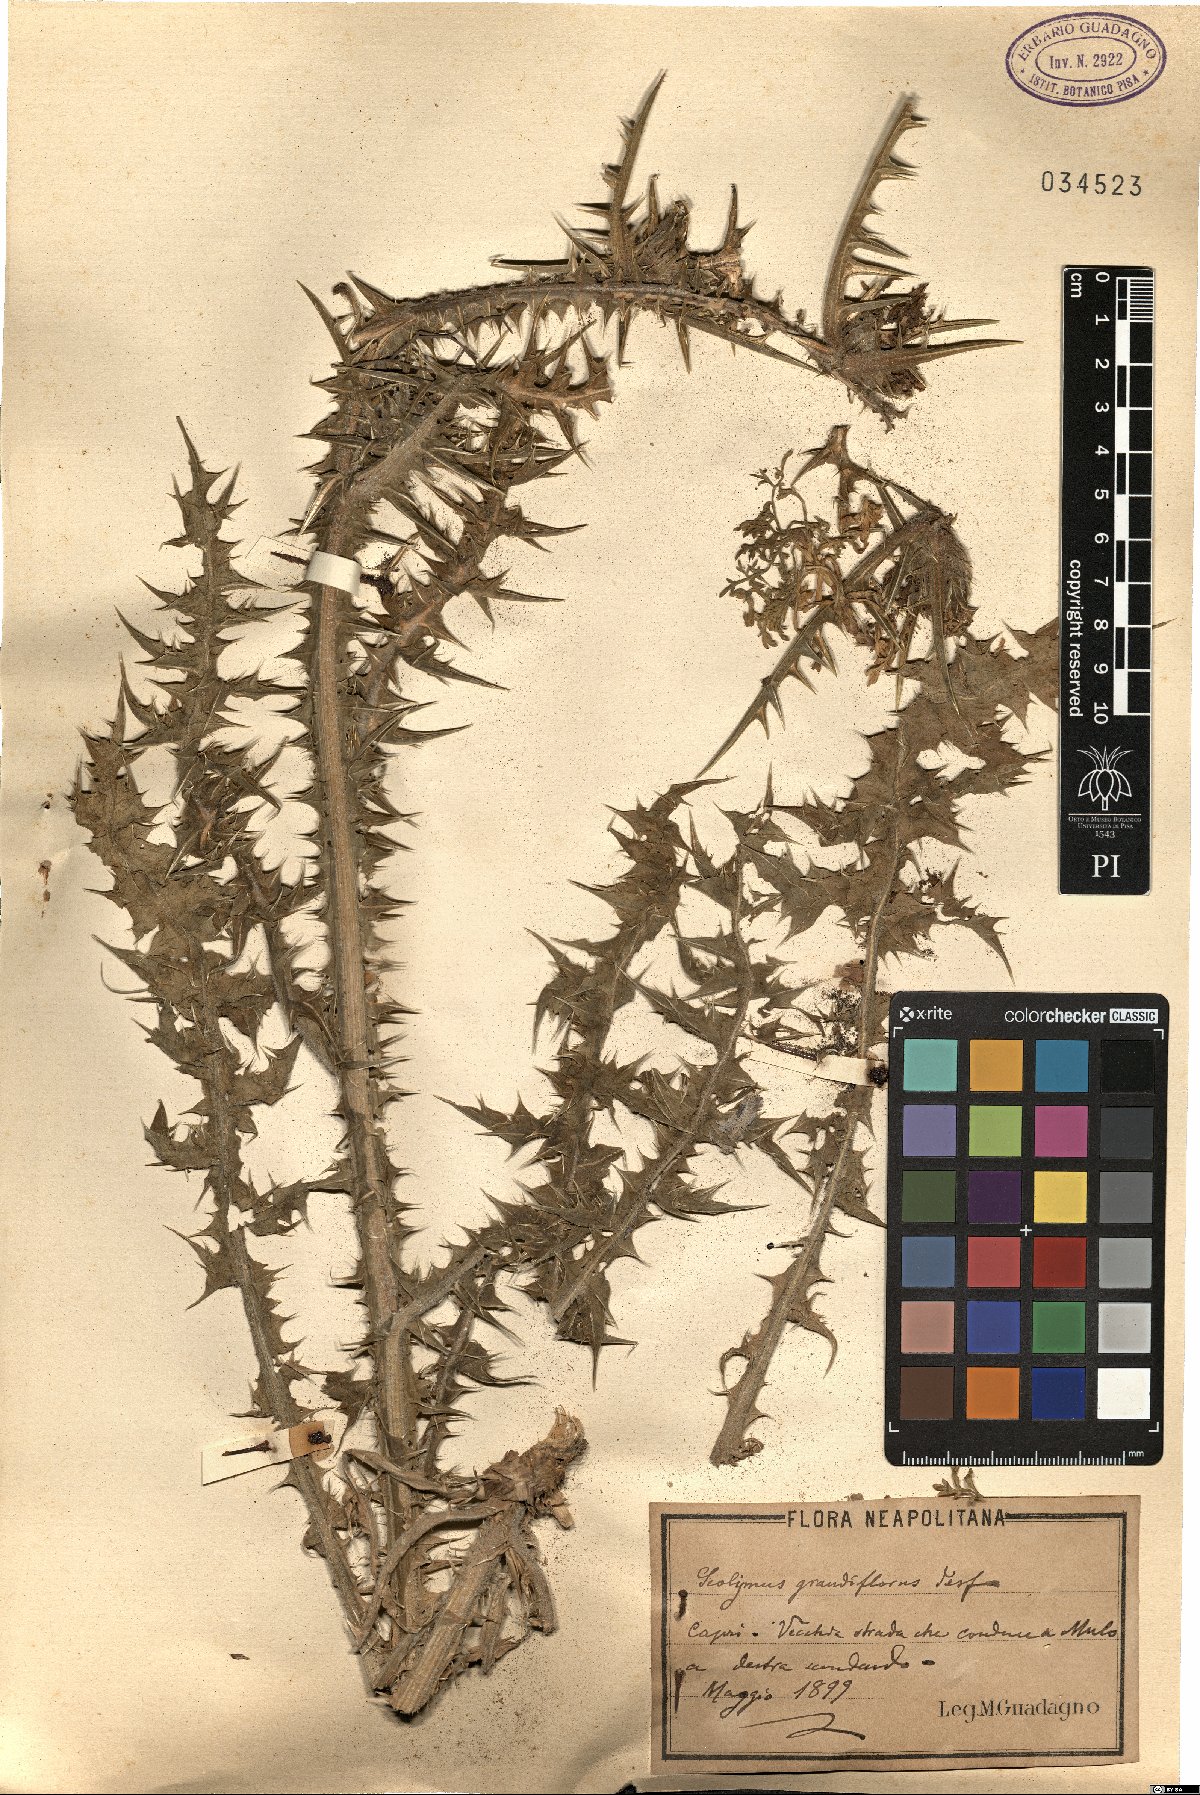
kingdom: Plantae
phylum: Tracheophyta
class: Magnoliopsida
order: Asterales
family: Asteraceae
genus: Scolymus
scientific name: Scolymus grandiflorus
